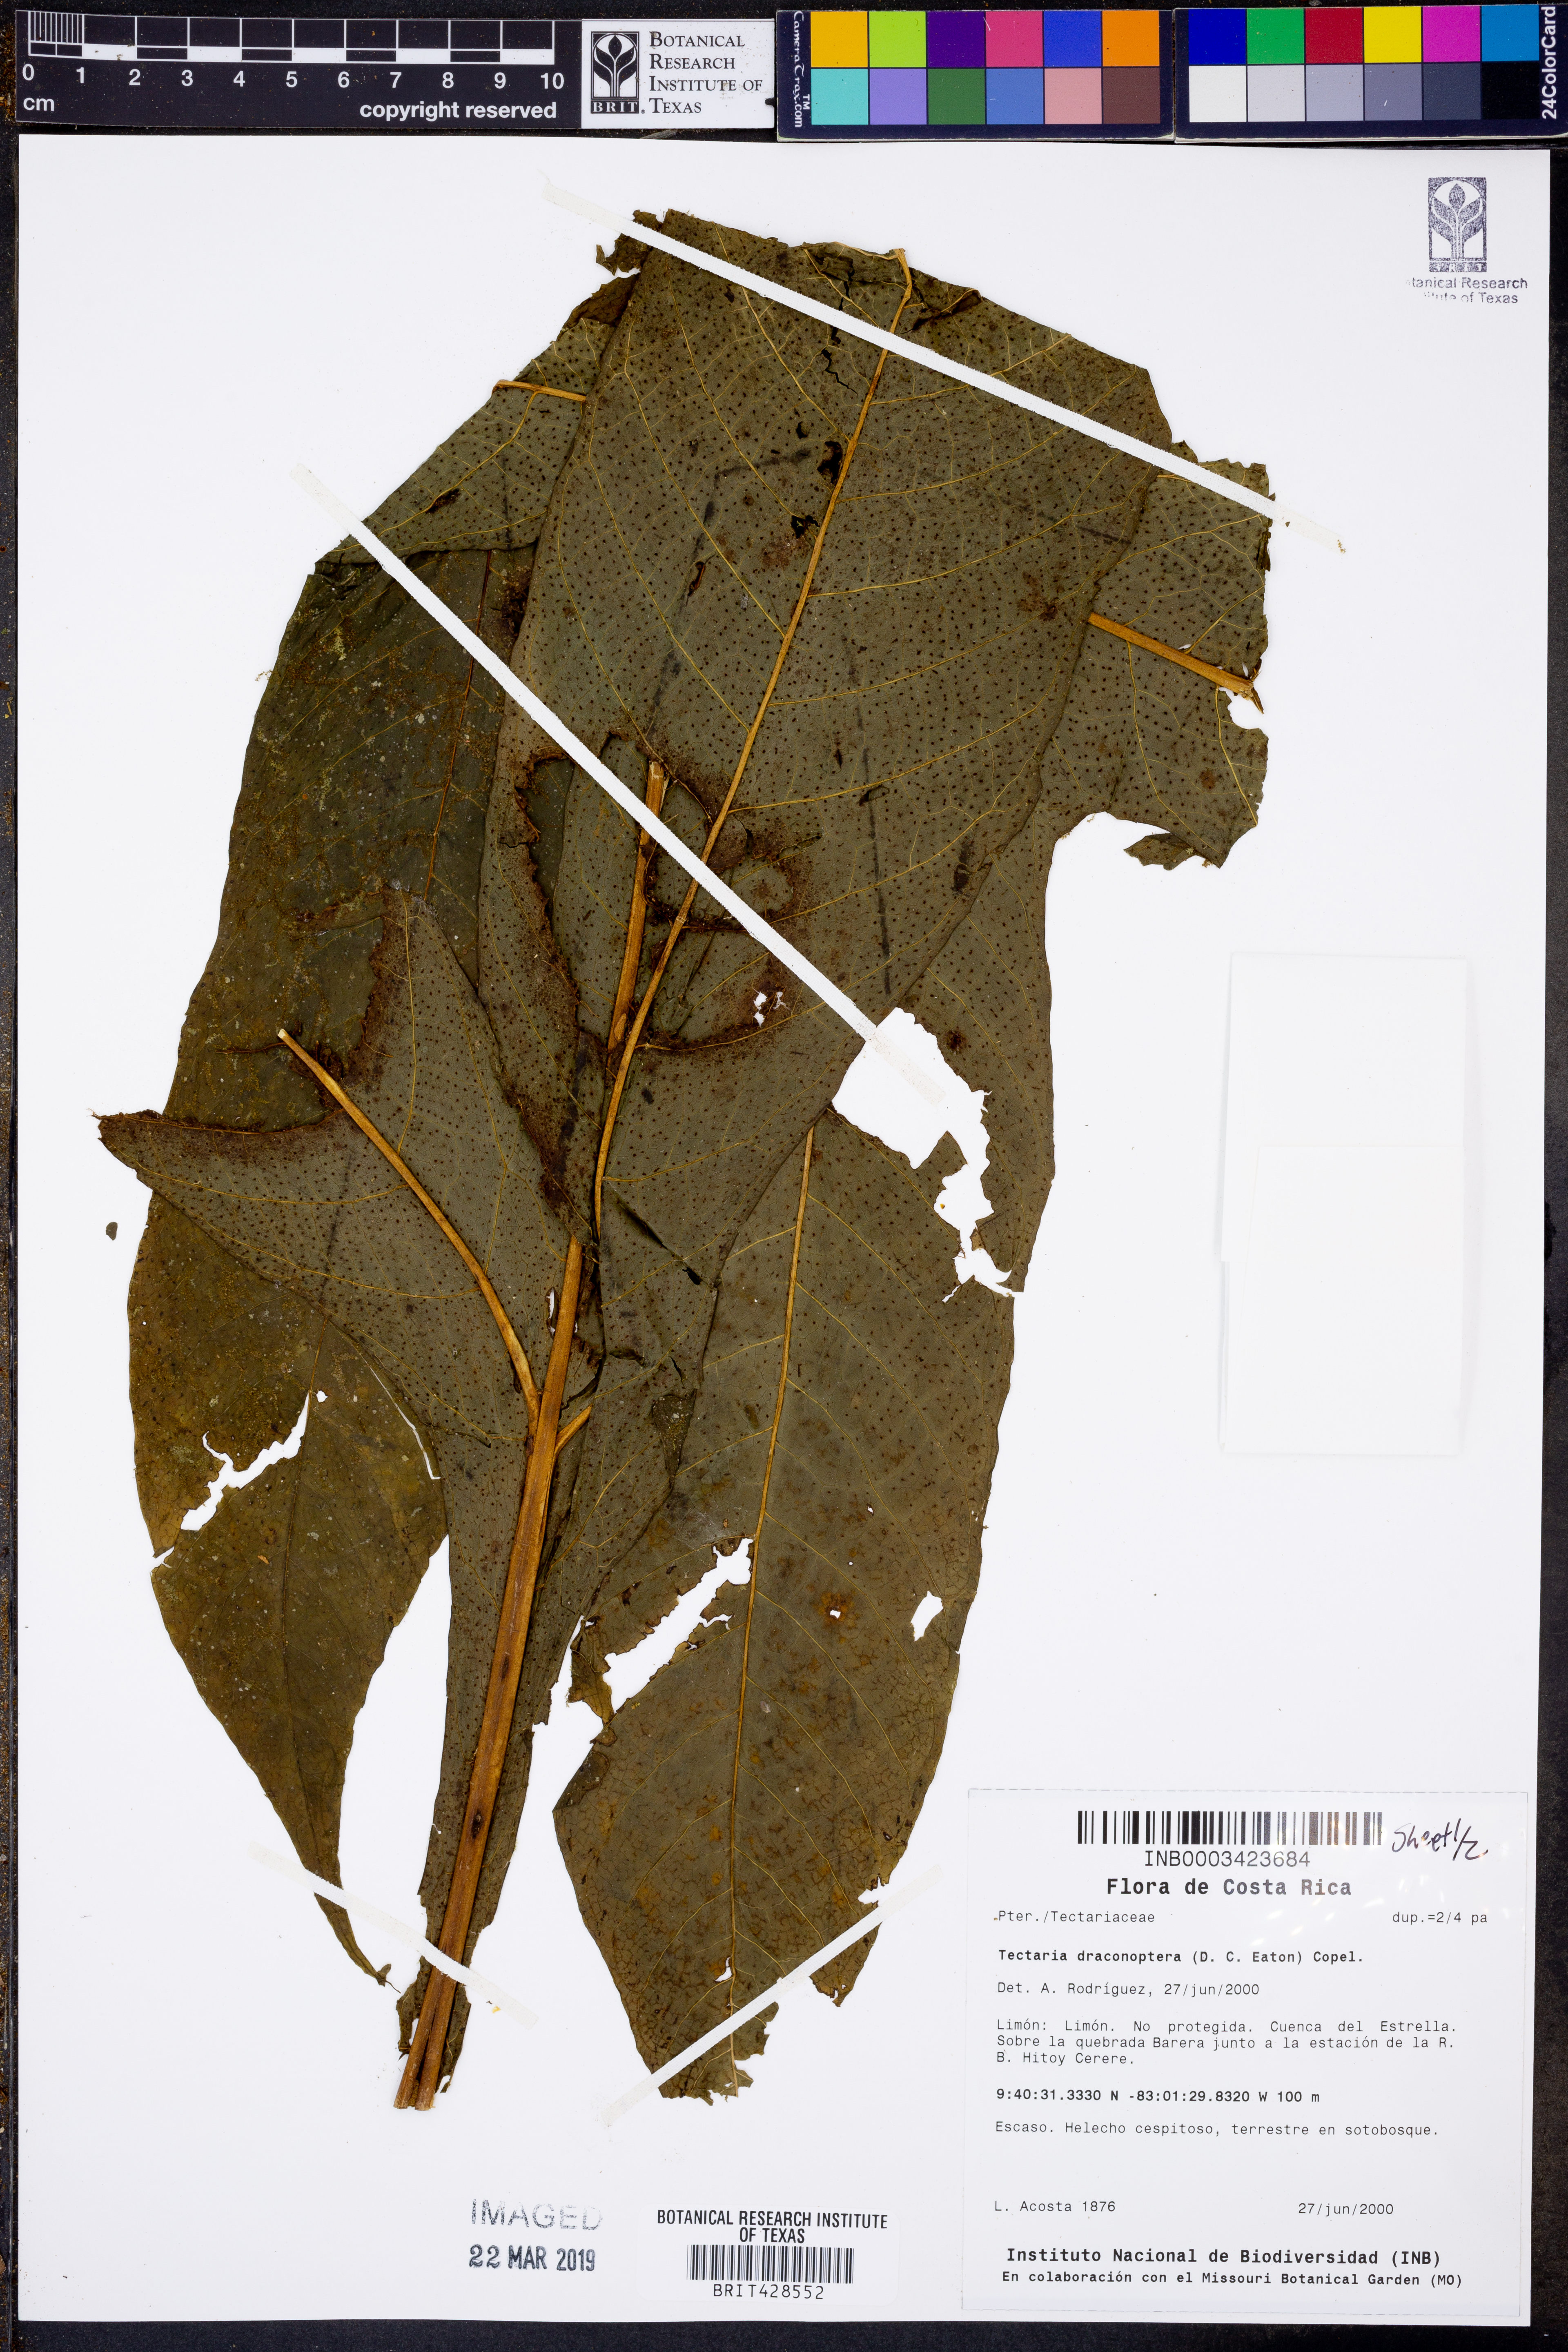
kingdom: Plantae
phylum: Tracheophyta
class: Polypodiopsida
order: Polypodiales
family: Tectariaceae
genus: Draconopteris
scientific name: Draconopteris draconoptera
